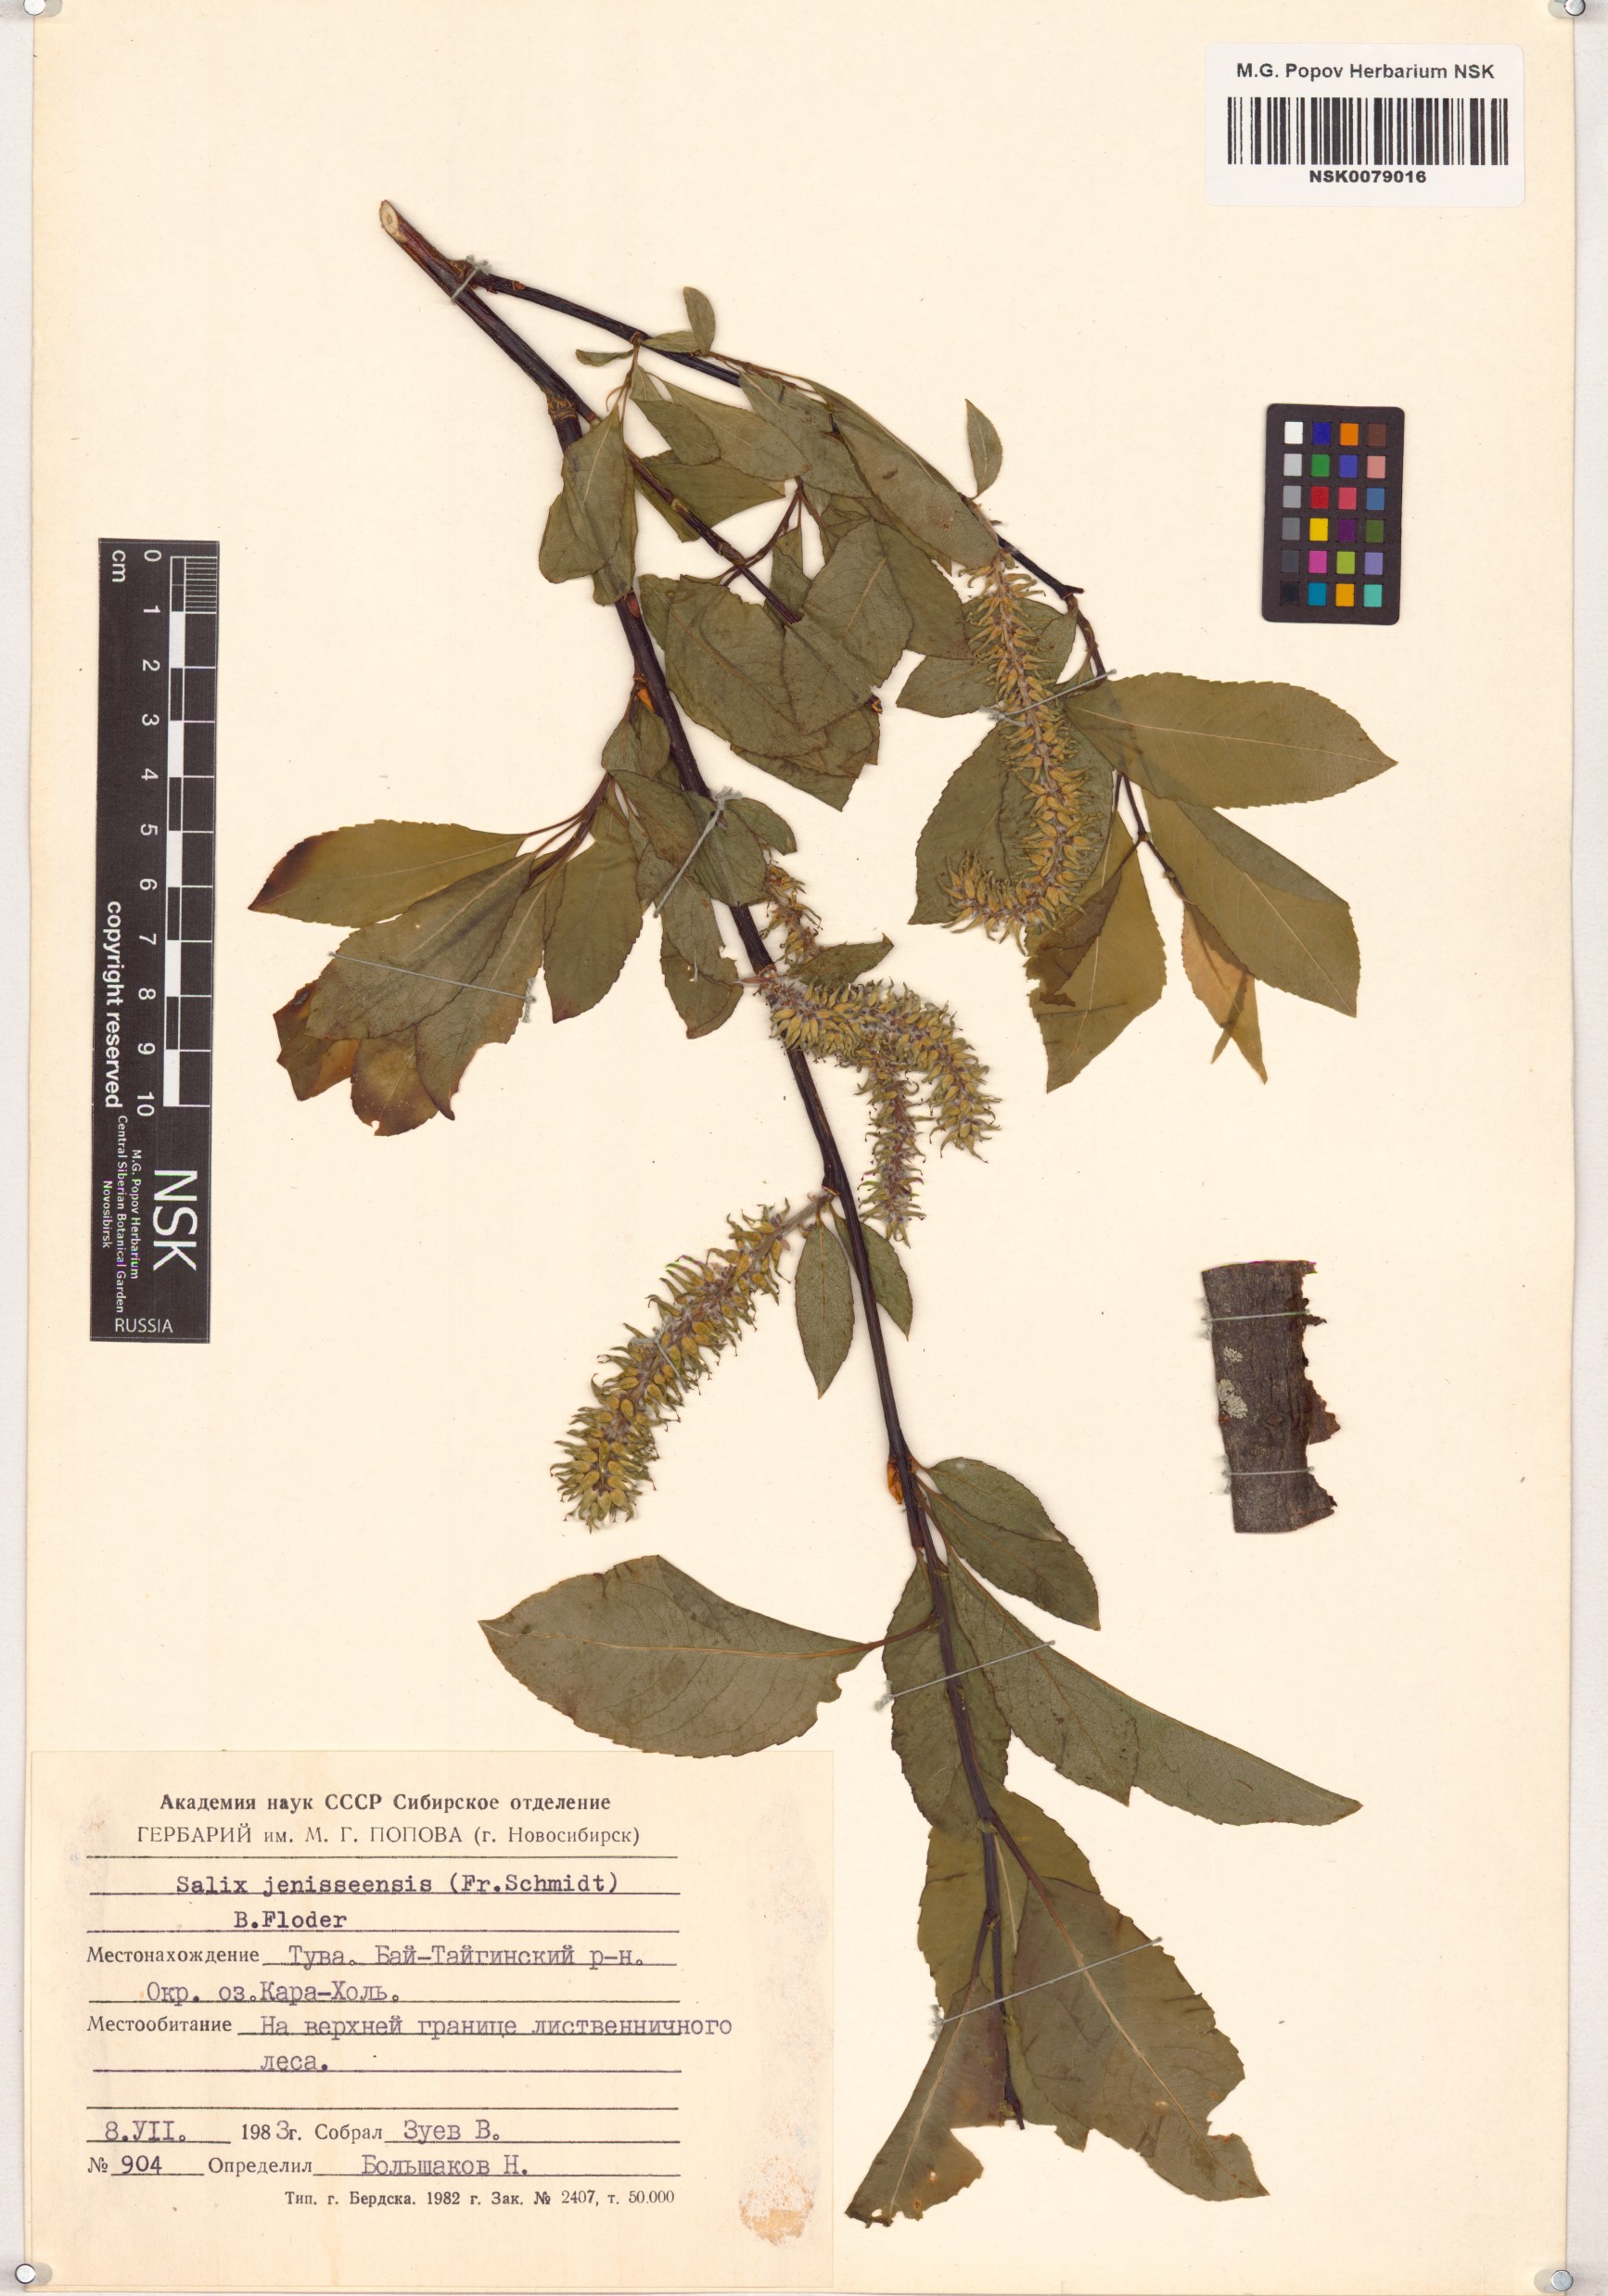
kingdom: Plantae
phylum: Tracheophyta
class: Magnoliopsida
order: Malpighiales
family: Salicaceae
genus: Salix
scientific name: Salix jenisseensis
